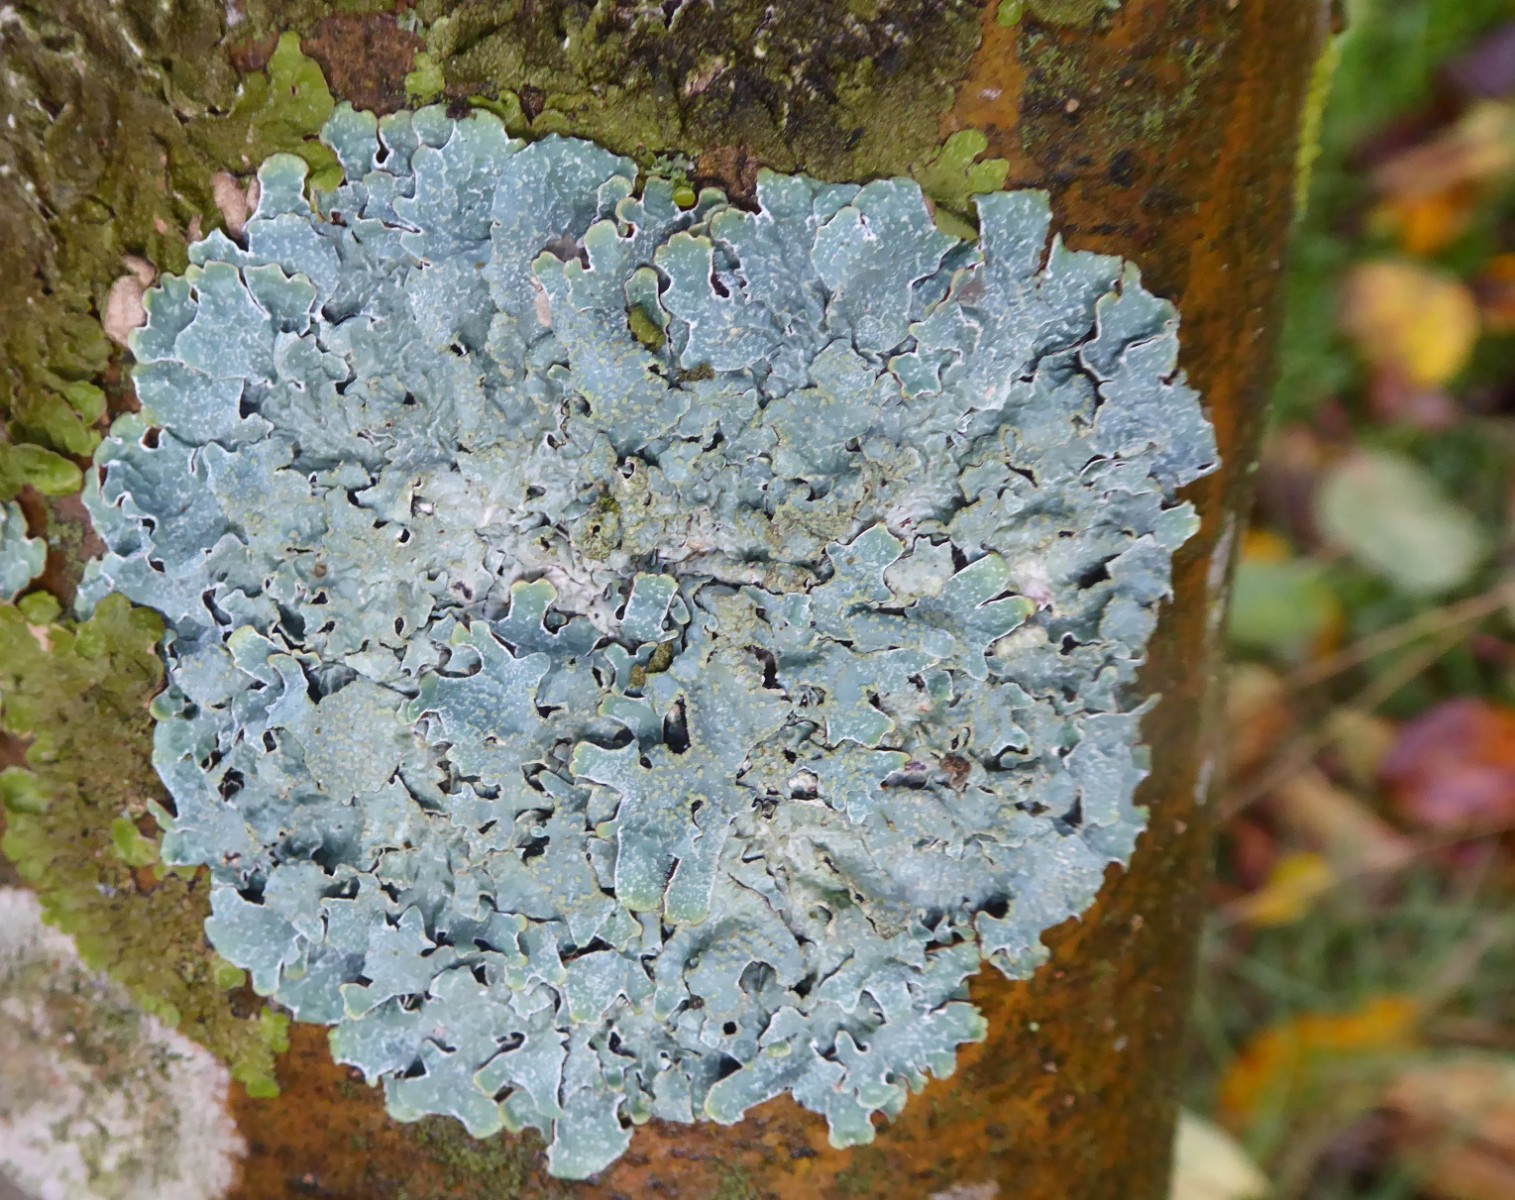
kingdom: Fungi
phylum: Ascomycota
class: Lecanoromycetes
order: Lecanorales
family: Parmeliaceae
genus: Parmelia
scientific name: Parmelia sulcata
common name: rynket skållav
